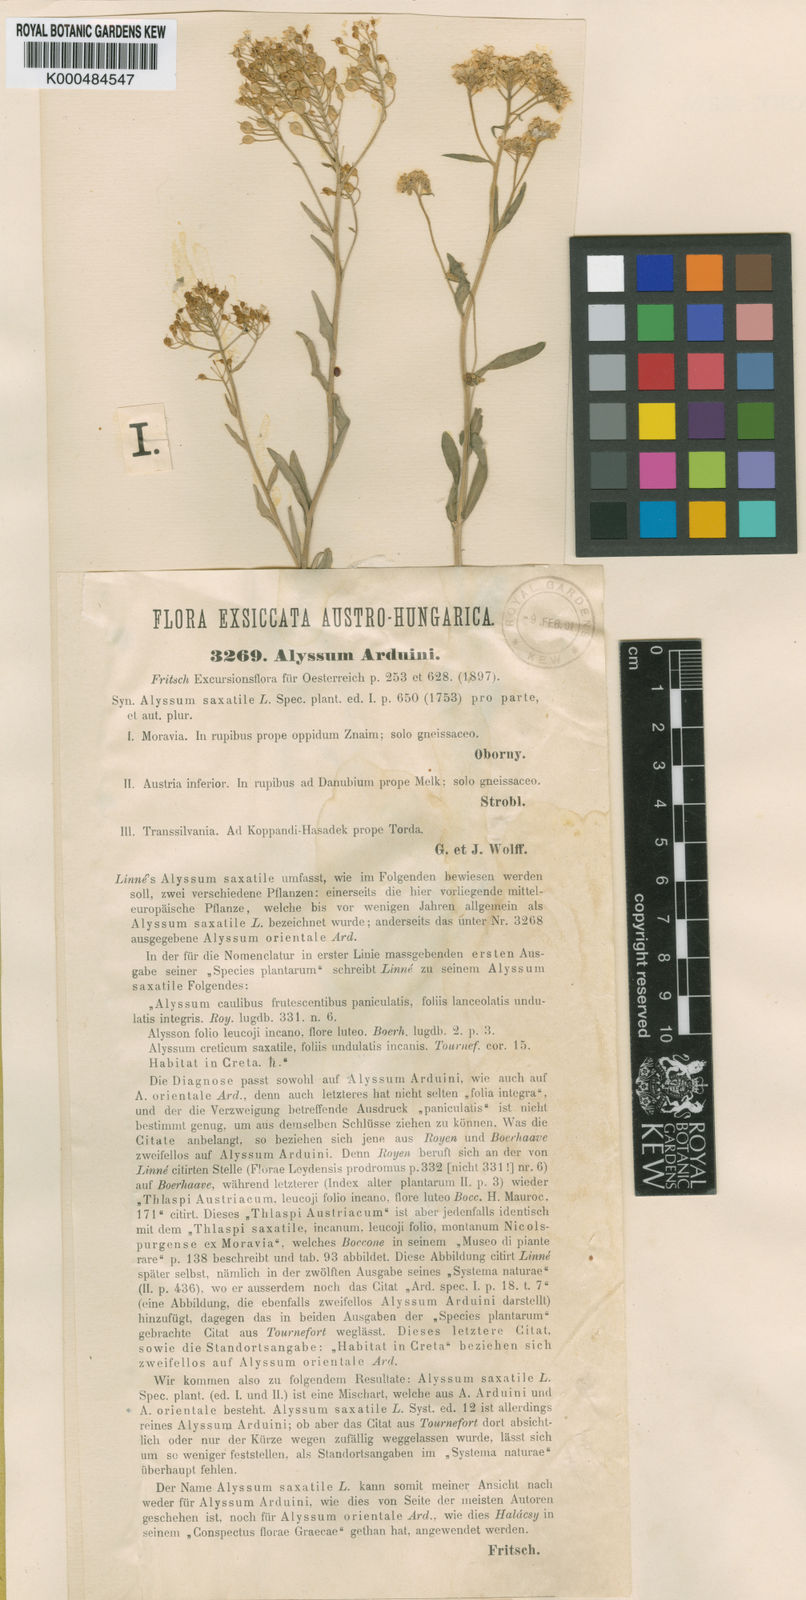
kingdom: Plantae
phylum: Tracheophyta
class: Magnoliopsida
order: Brassicales
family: Brassicaceae
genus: Aurinia
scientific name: Aurinia saxatilis
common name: Golden-tuft alyssum
